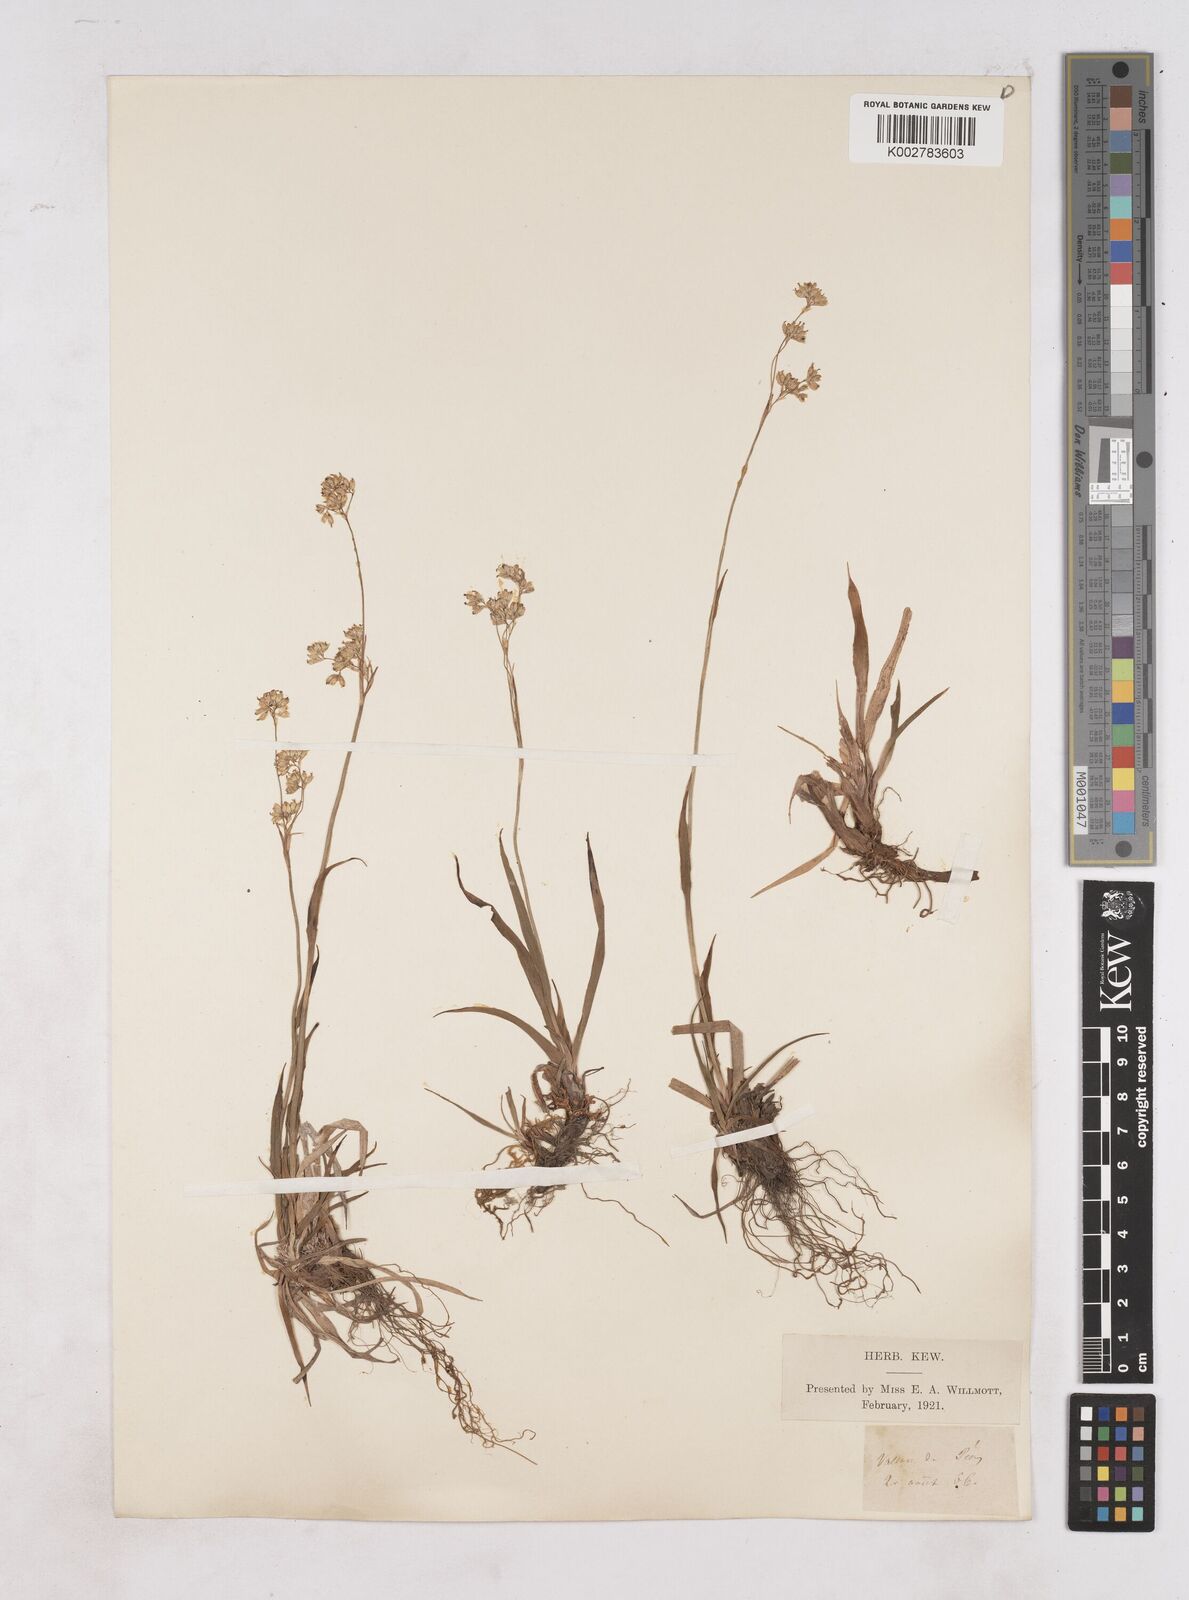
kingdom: Plantae
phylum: Tracheophyta
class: Liliopsida
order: Poales
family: Juncaceae
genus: Luzula
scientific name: Luzula
